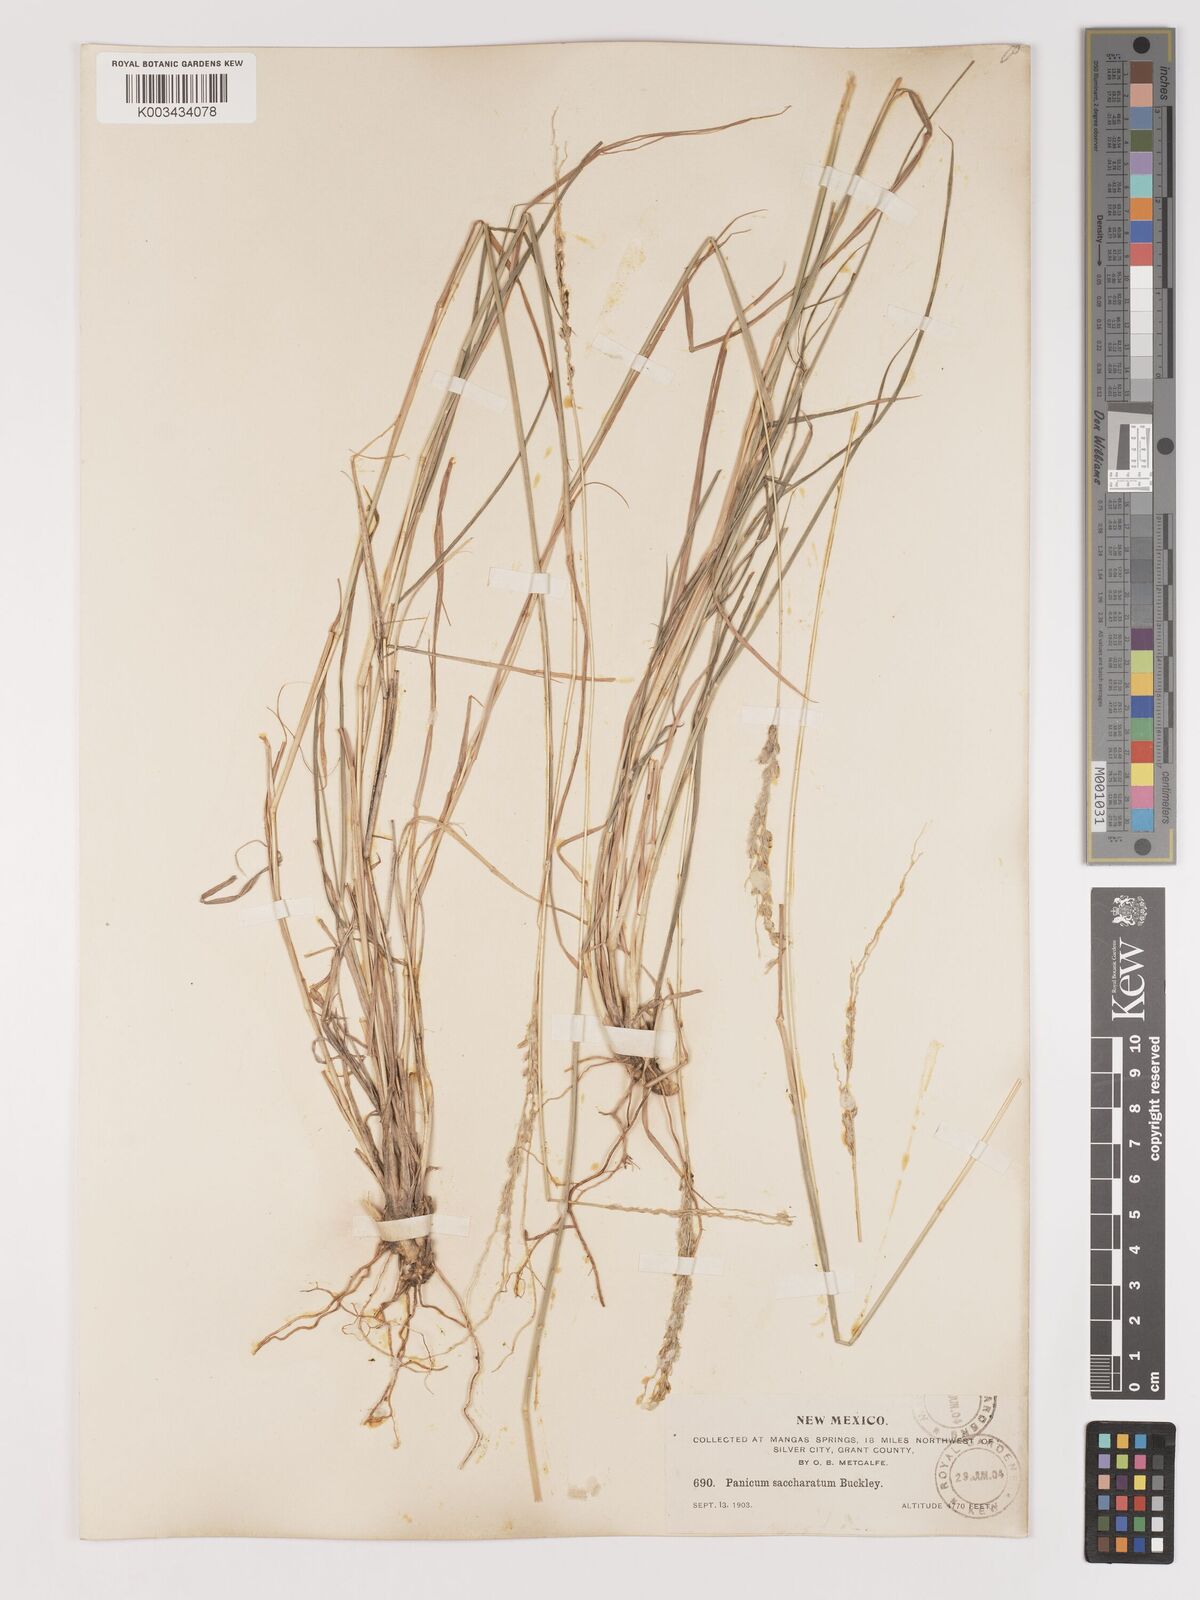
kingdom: Plantae
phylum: Tracheophyta
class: Liliopsida
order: Poales
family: Poaceae
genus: Digitaria
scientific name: Digitaria californica
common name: Arizona cottontop
